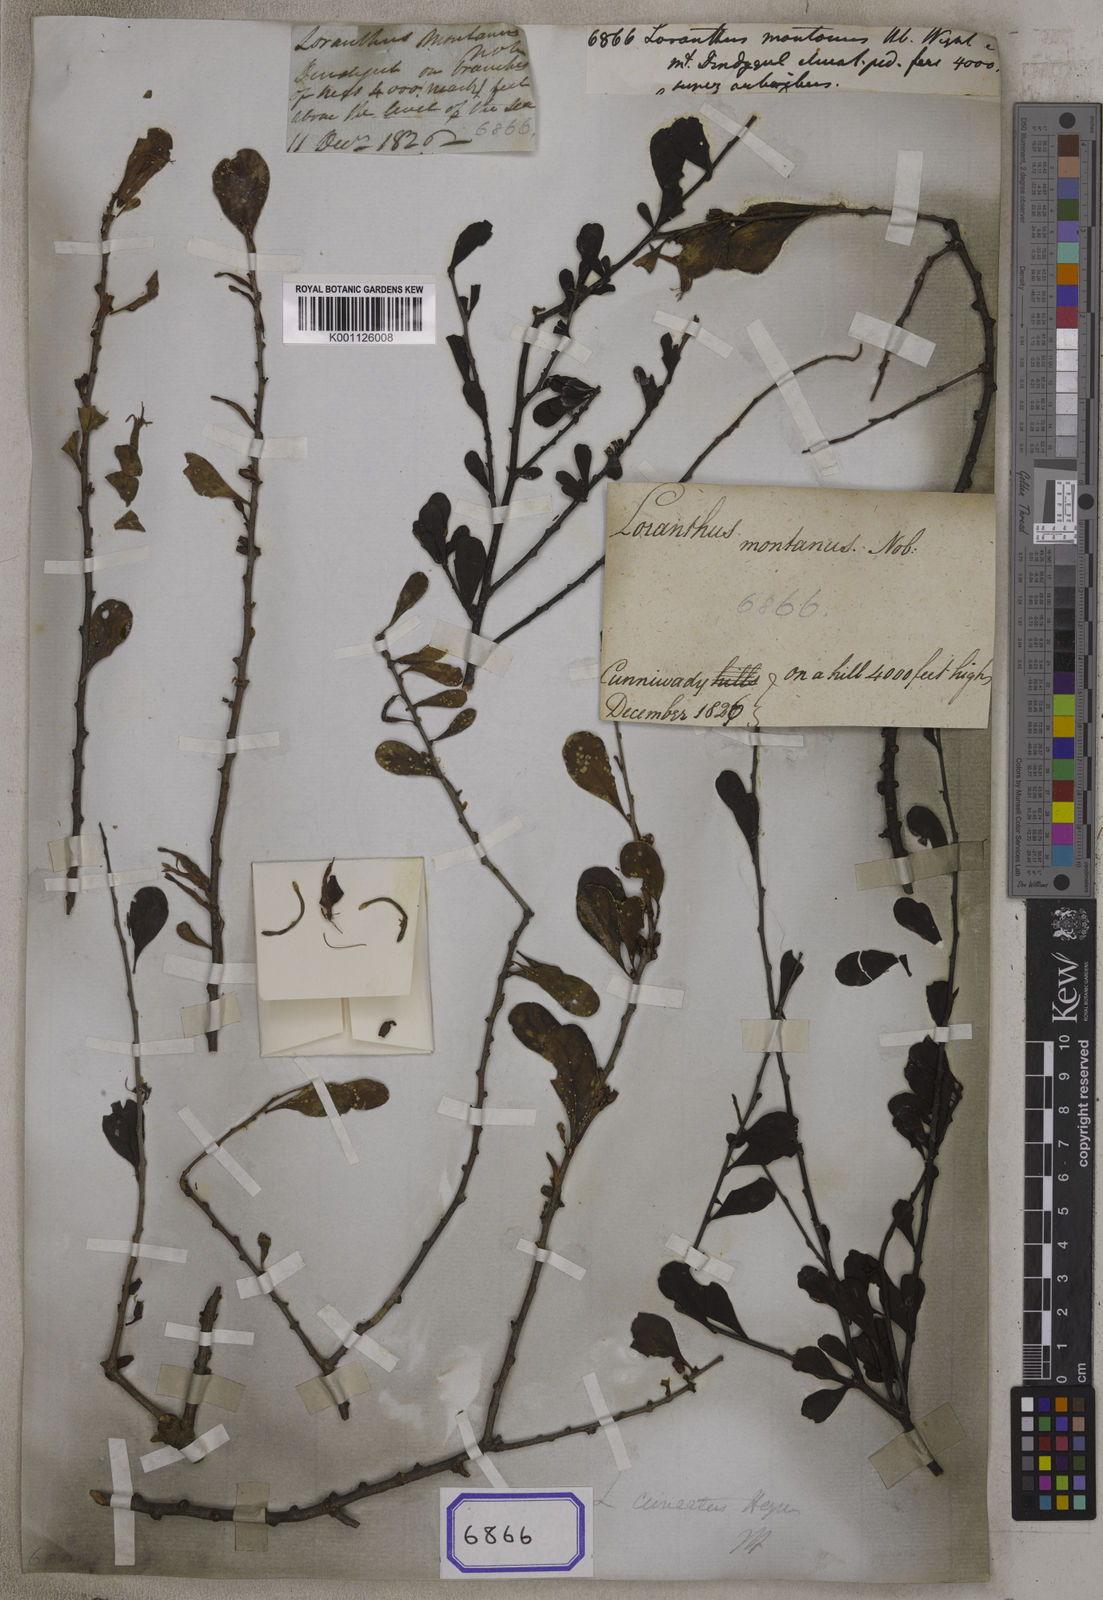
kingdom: Plantae
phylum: Tracheophyta
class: Magnoliopsida
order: Santalales
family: Loranthaceae
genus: Taxillus
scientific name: Taxillus cuneatus
